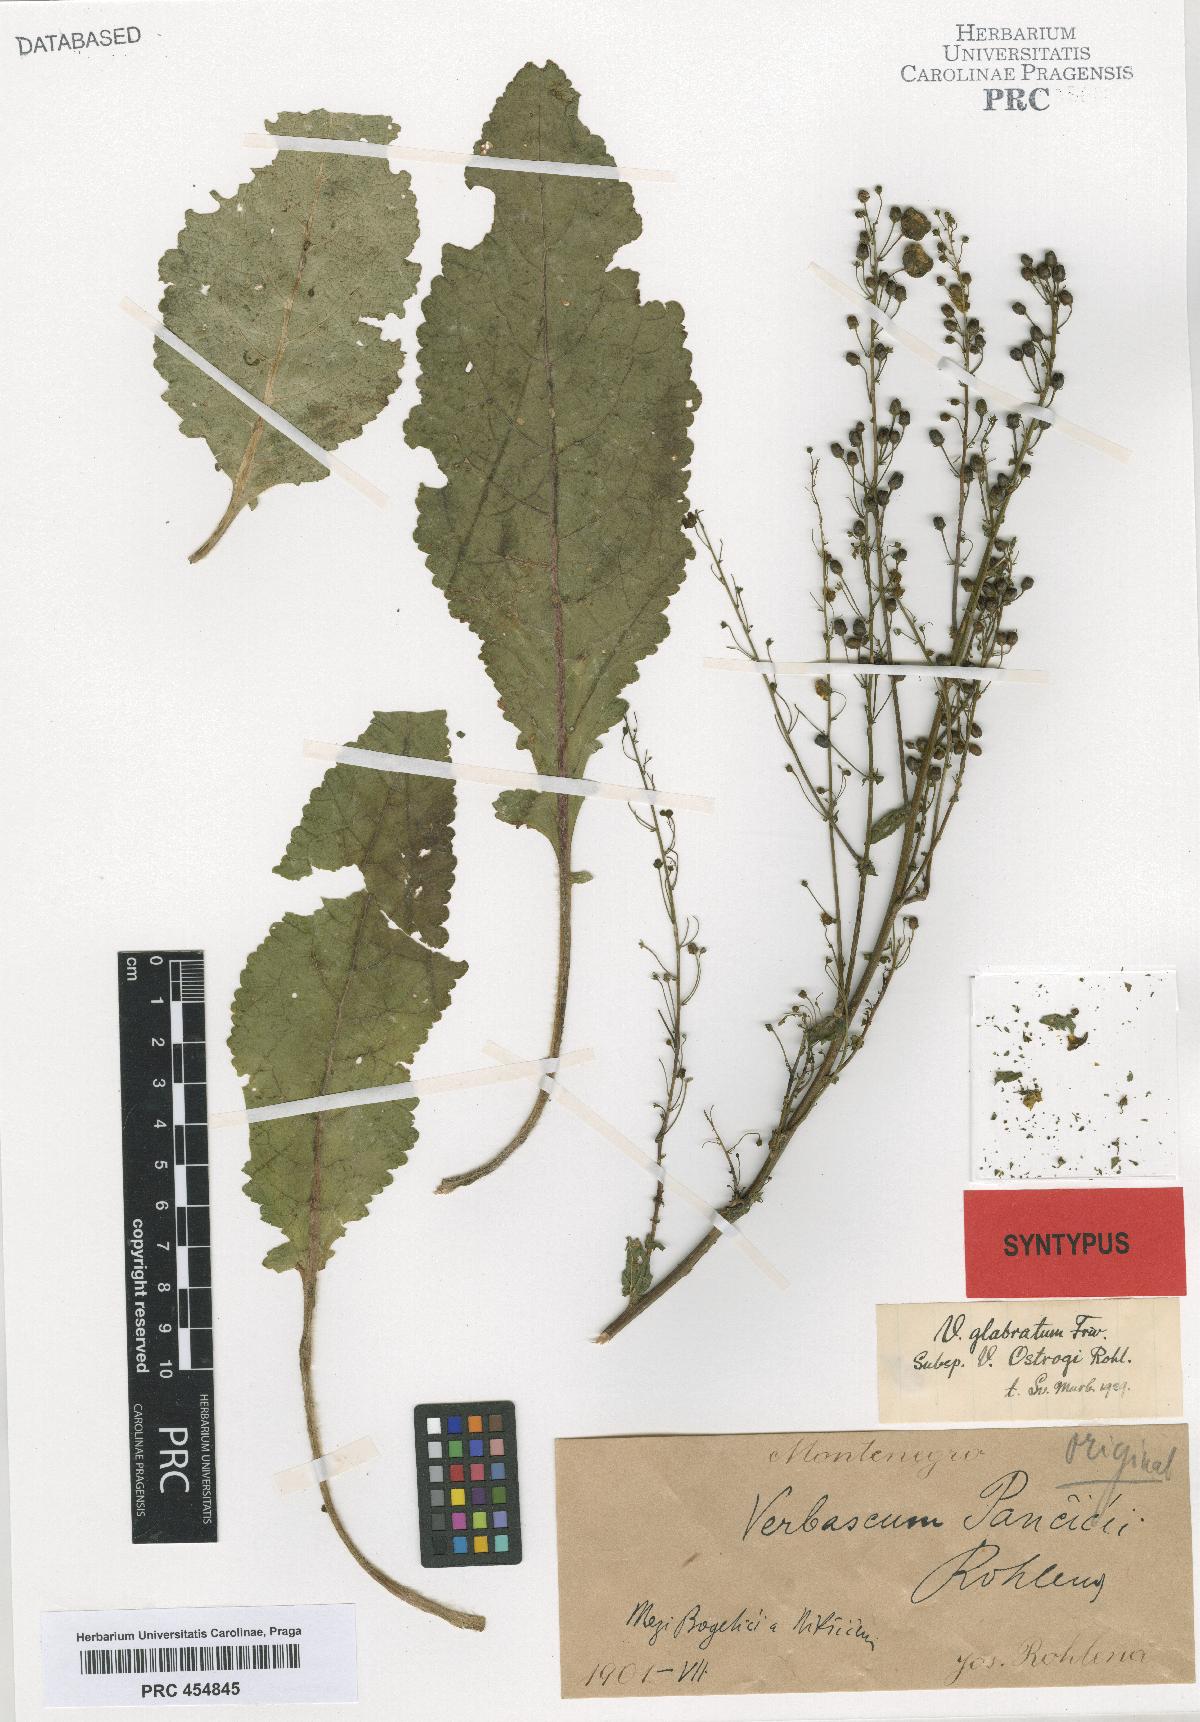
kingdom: Plantae
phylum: Tracheophyta
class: Magnoliopsida
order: Lamiales
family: Scrophulariaceae
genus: Verbascum
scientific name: Verbascum glabratum
